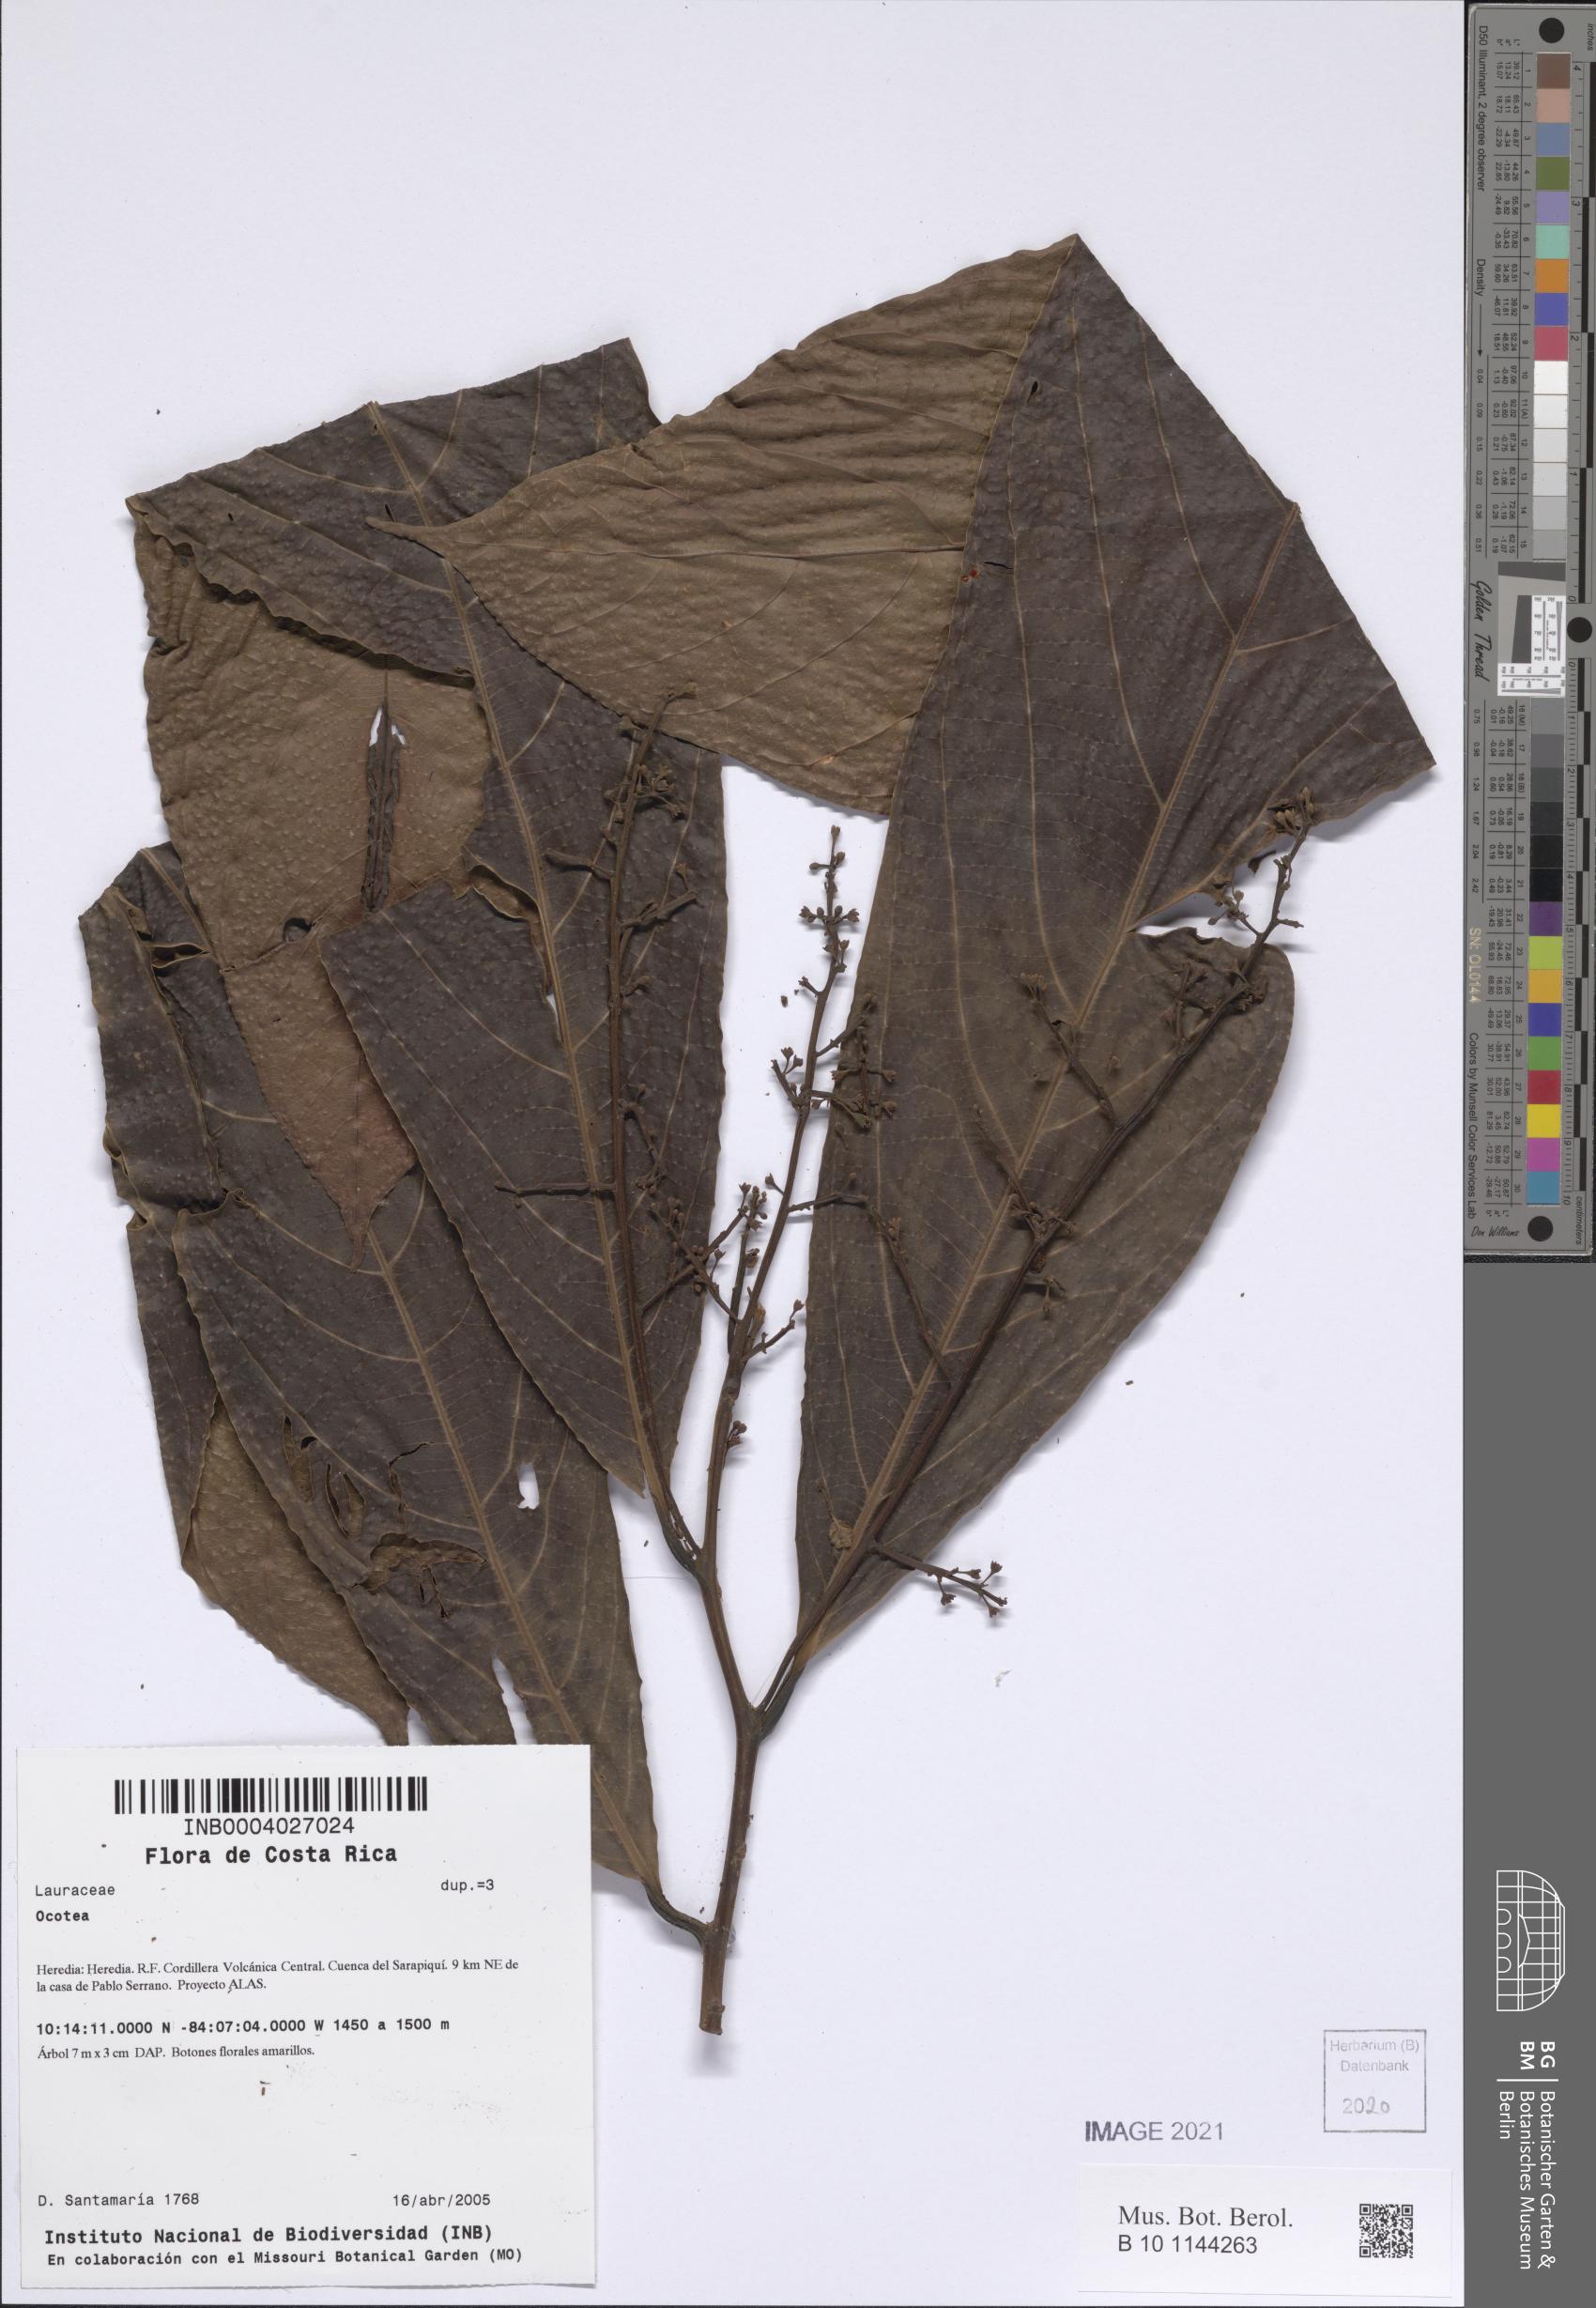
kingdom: Plantae
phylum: Tracheophyta
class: Magnoliopsida
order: Laurales
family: Lauraceae
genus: Ocotea
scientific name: Ocotea
